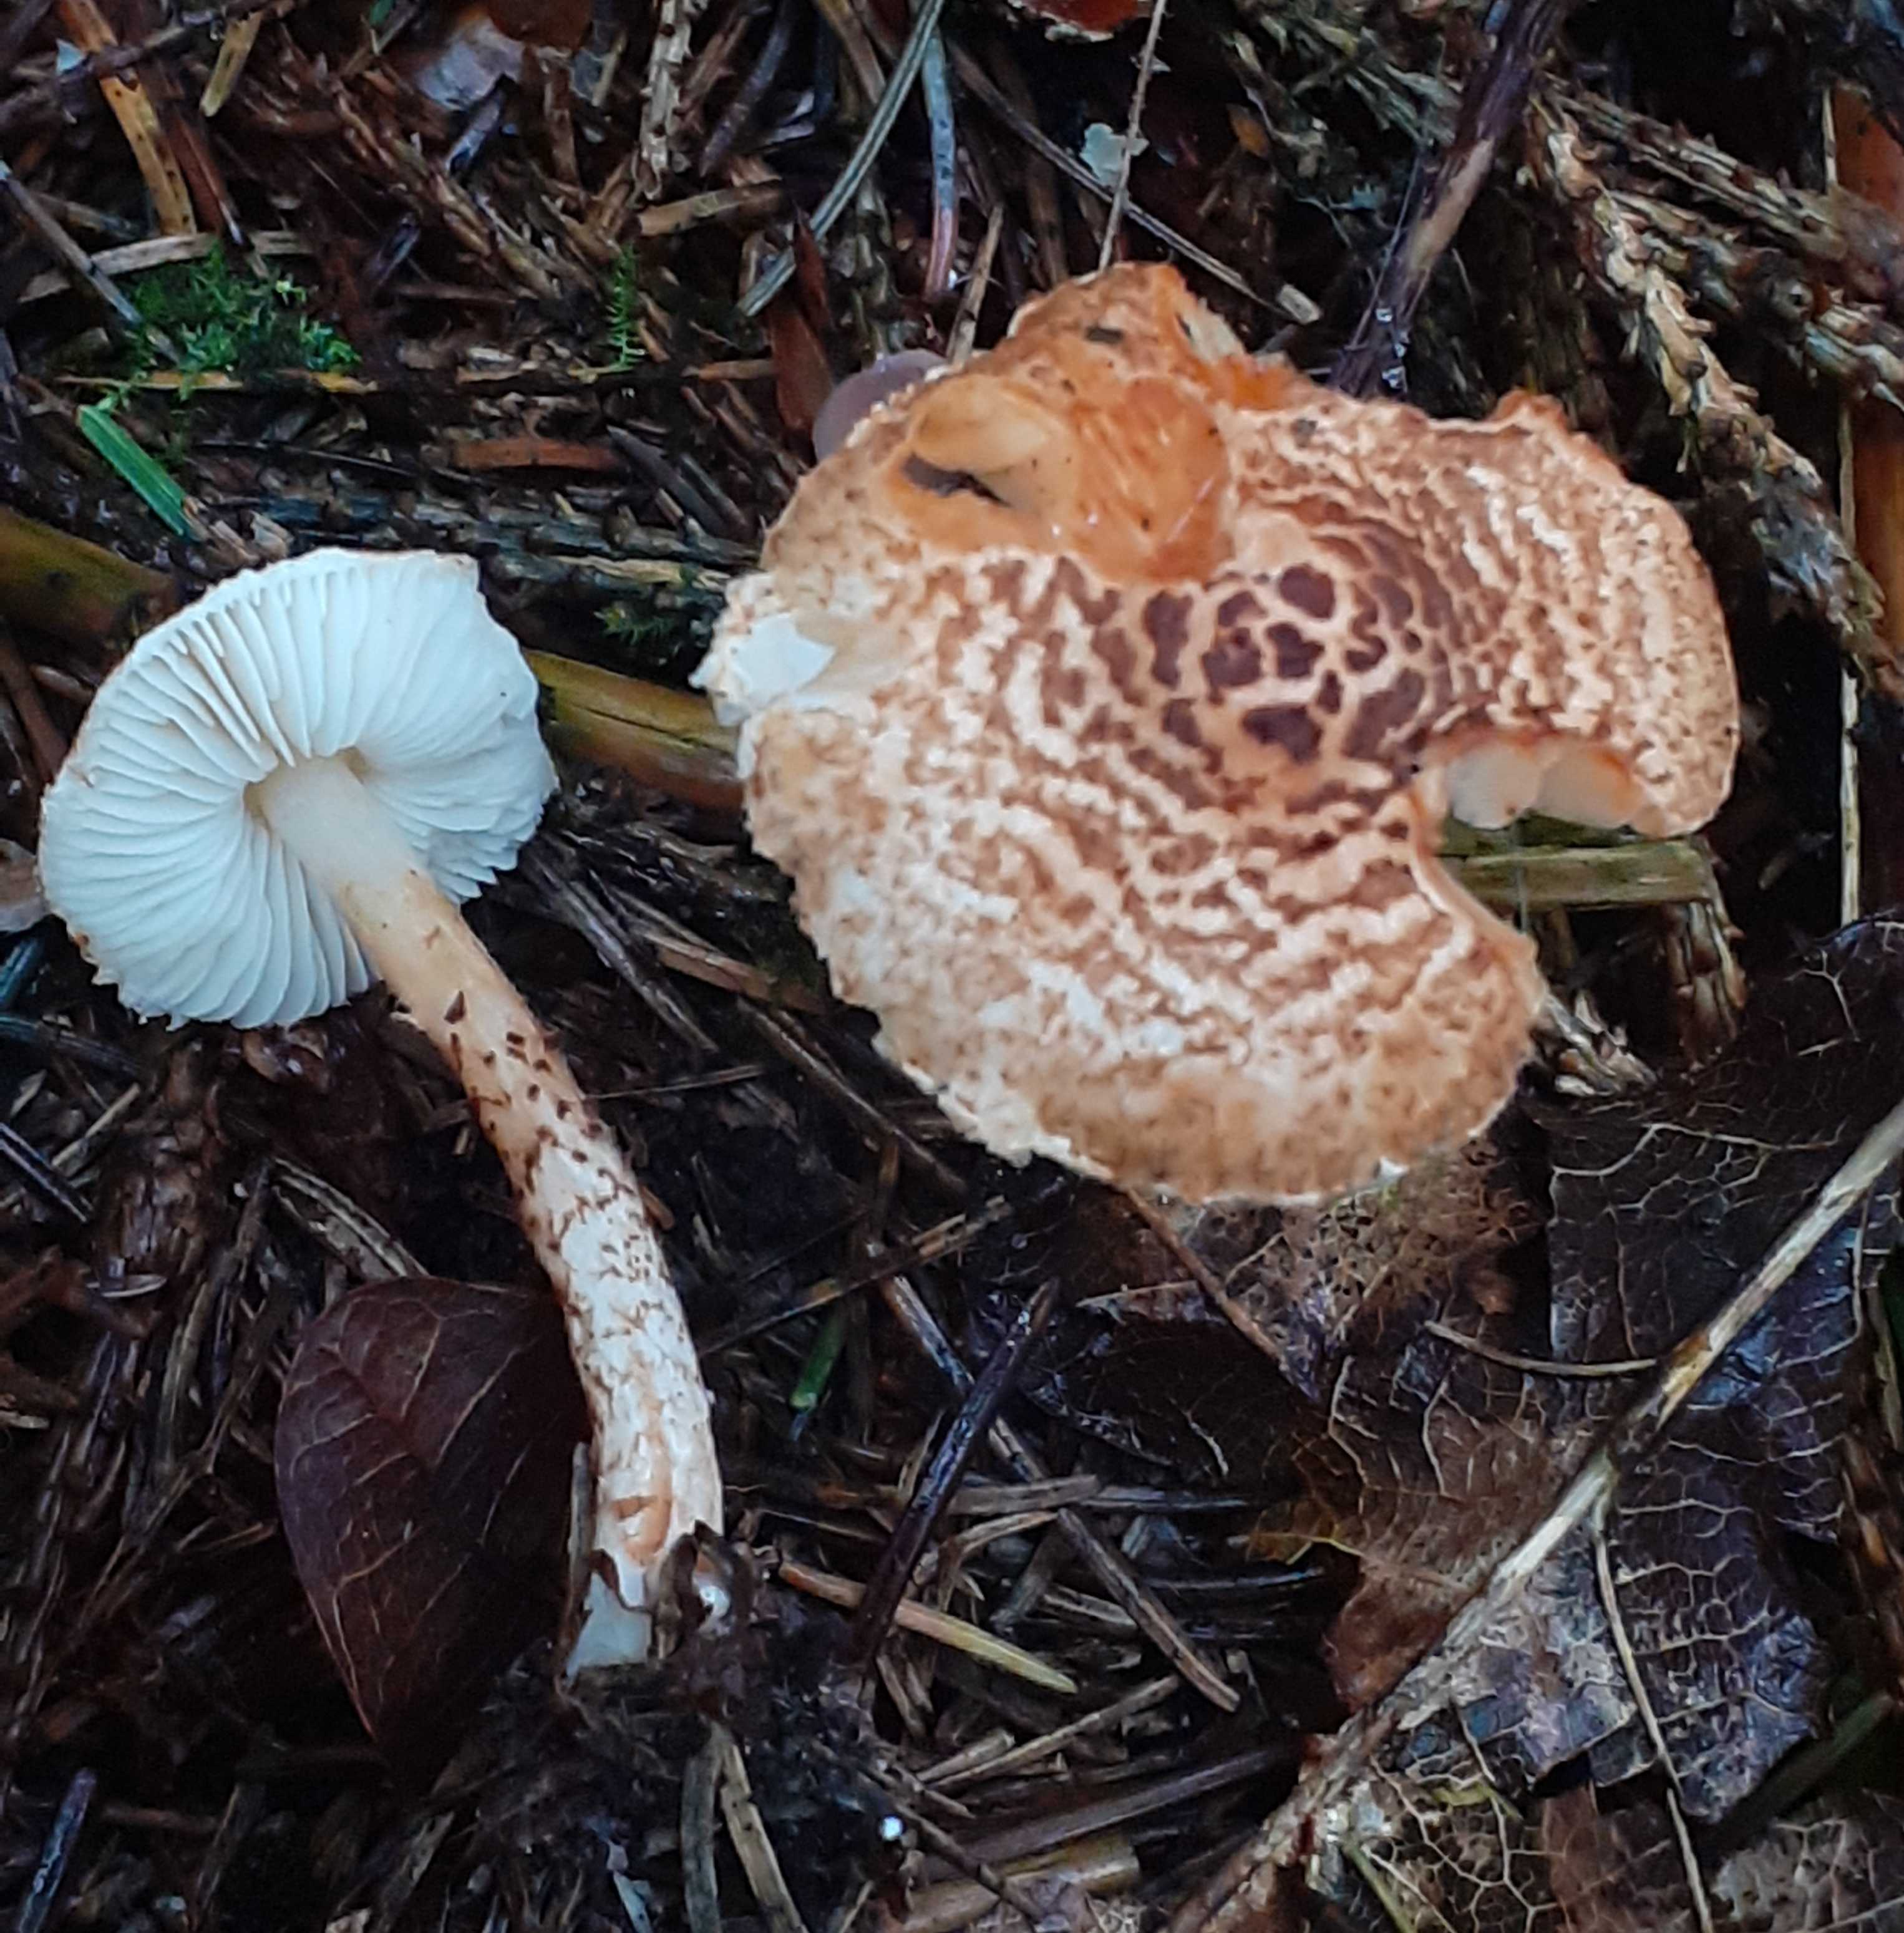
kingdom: Fungi
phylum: Basidiomycota
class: Agaricomycetes
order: Agaricales
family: Agaricaceae
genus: Lepiota
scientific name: Lepiota castanea
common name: kastaniebrun parasolhat
